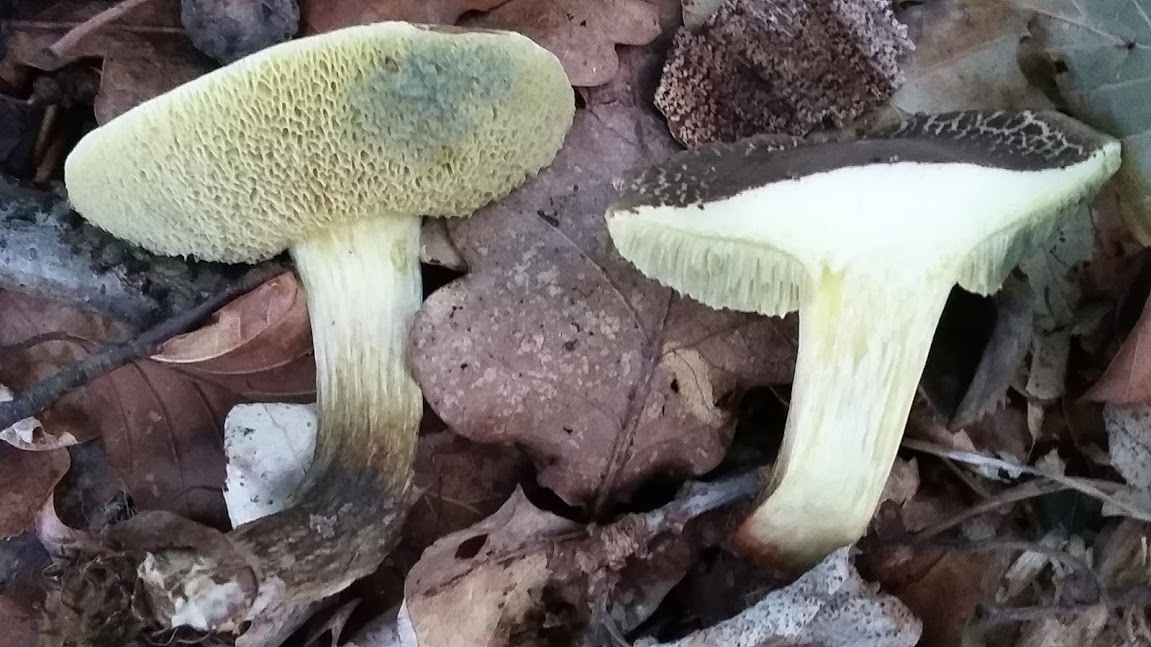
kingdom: Fungi
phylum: Basidiomycota
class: Agaricomycetes
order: Boletales
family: Boletaceae
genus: Xerocomellus
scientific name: Xerocomellus porosporus
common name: hvidsprukken rørhat
